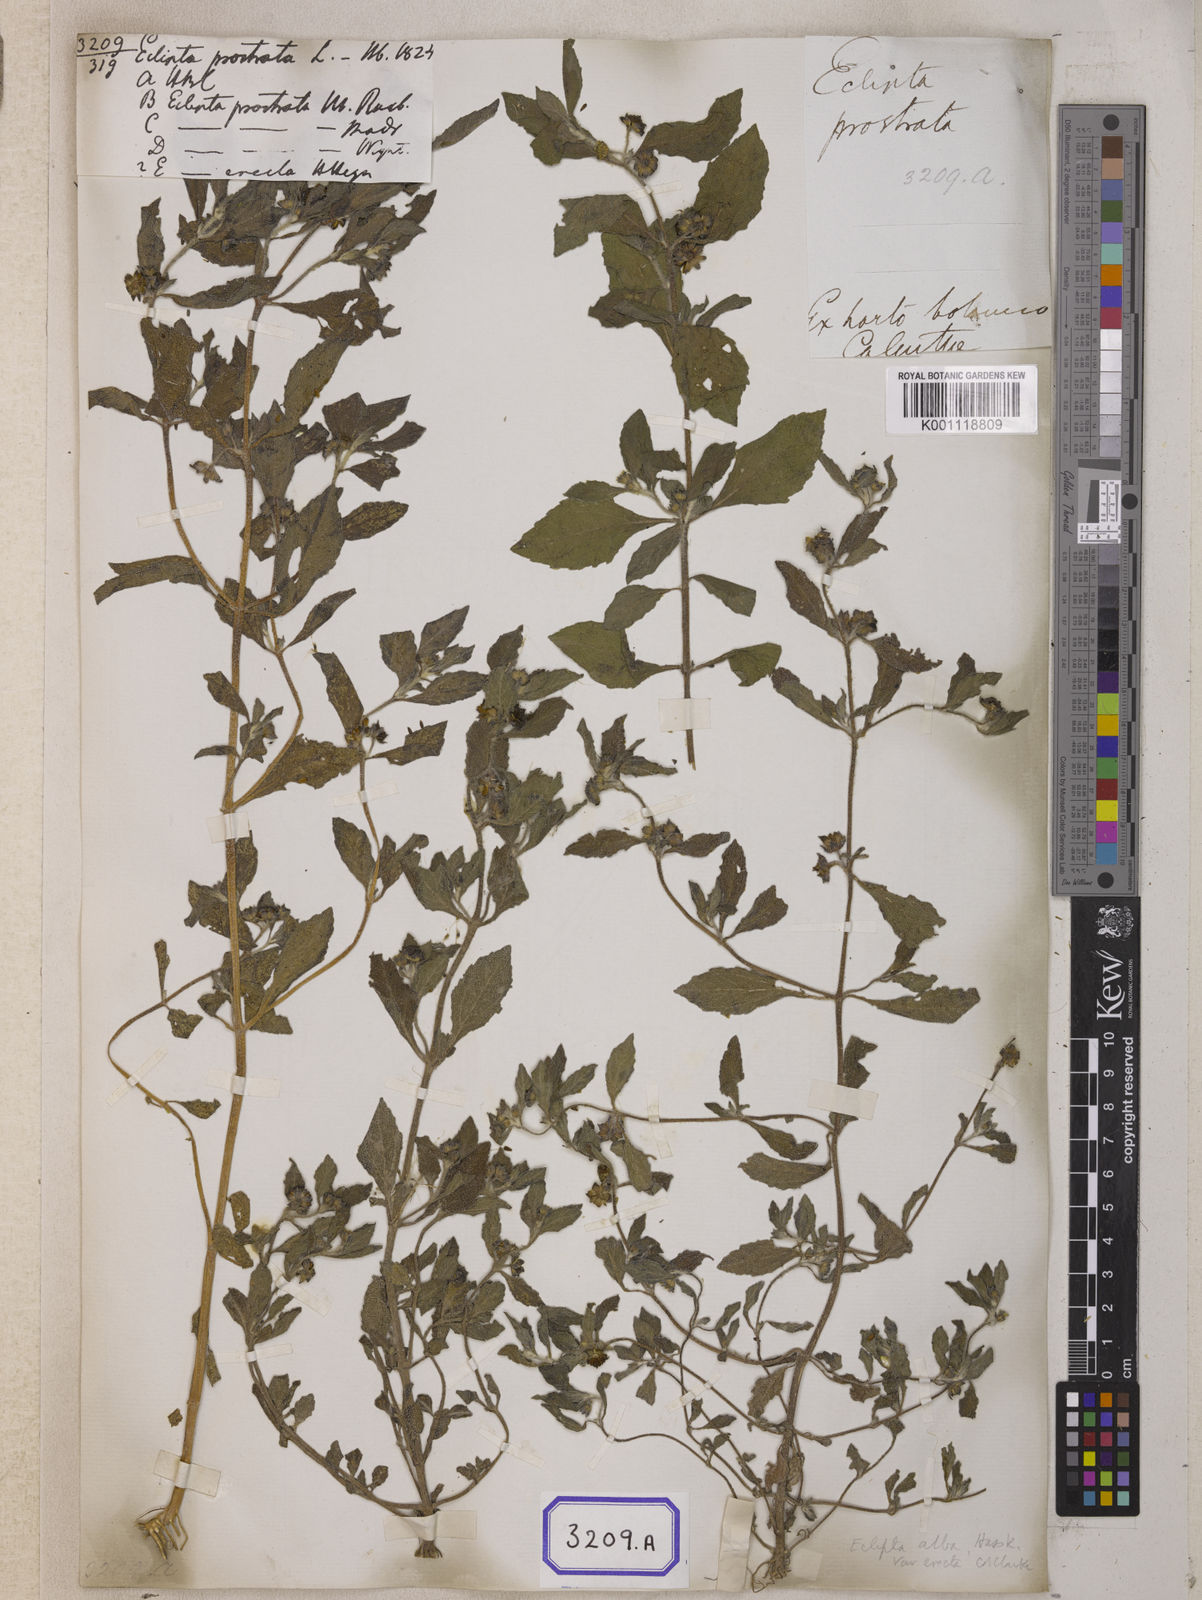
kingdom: Plantae
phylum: Tracheophyta
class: Magnoliopsida
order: Asterales
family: Asteraceae
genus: Eclipta
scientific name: Eclipta prostrata
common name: False daisy
